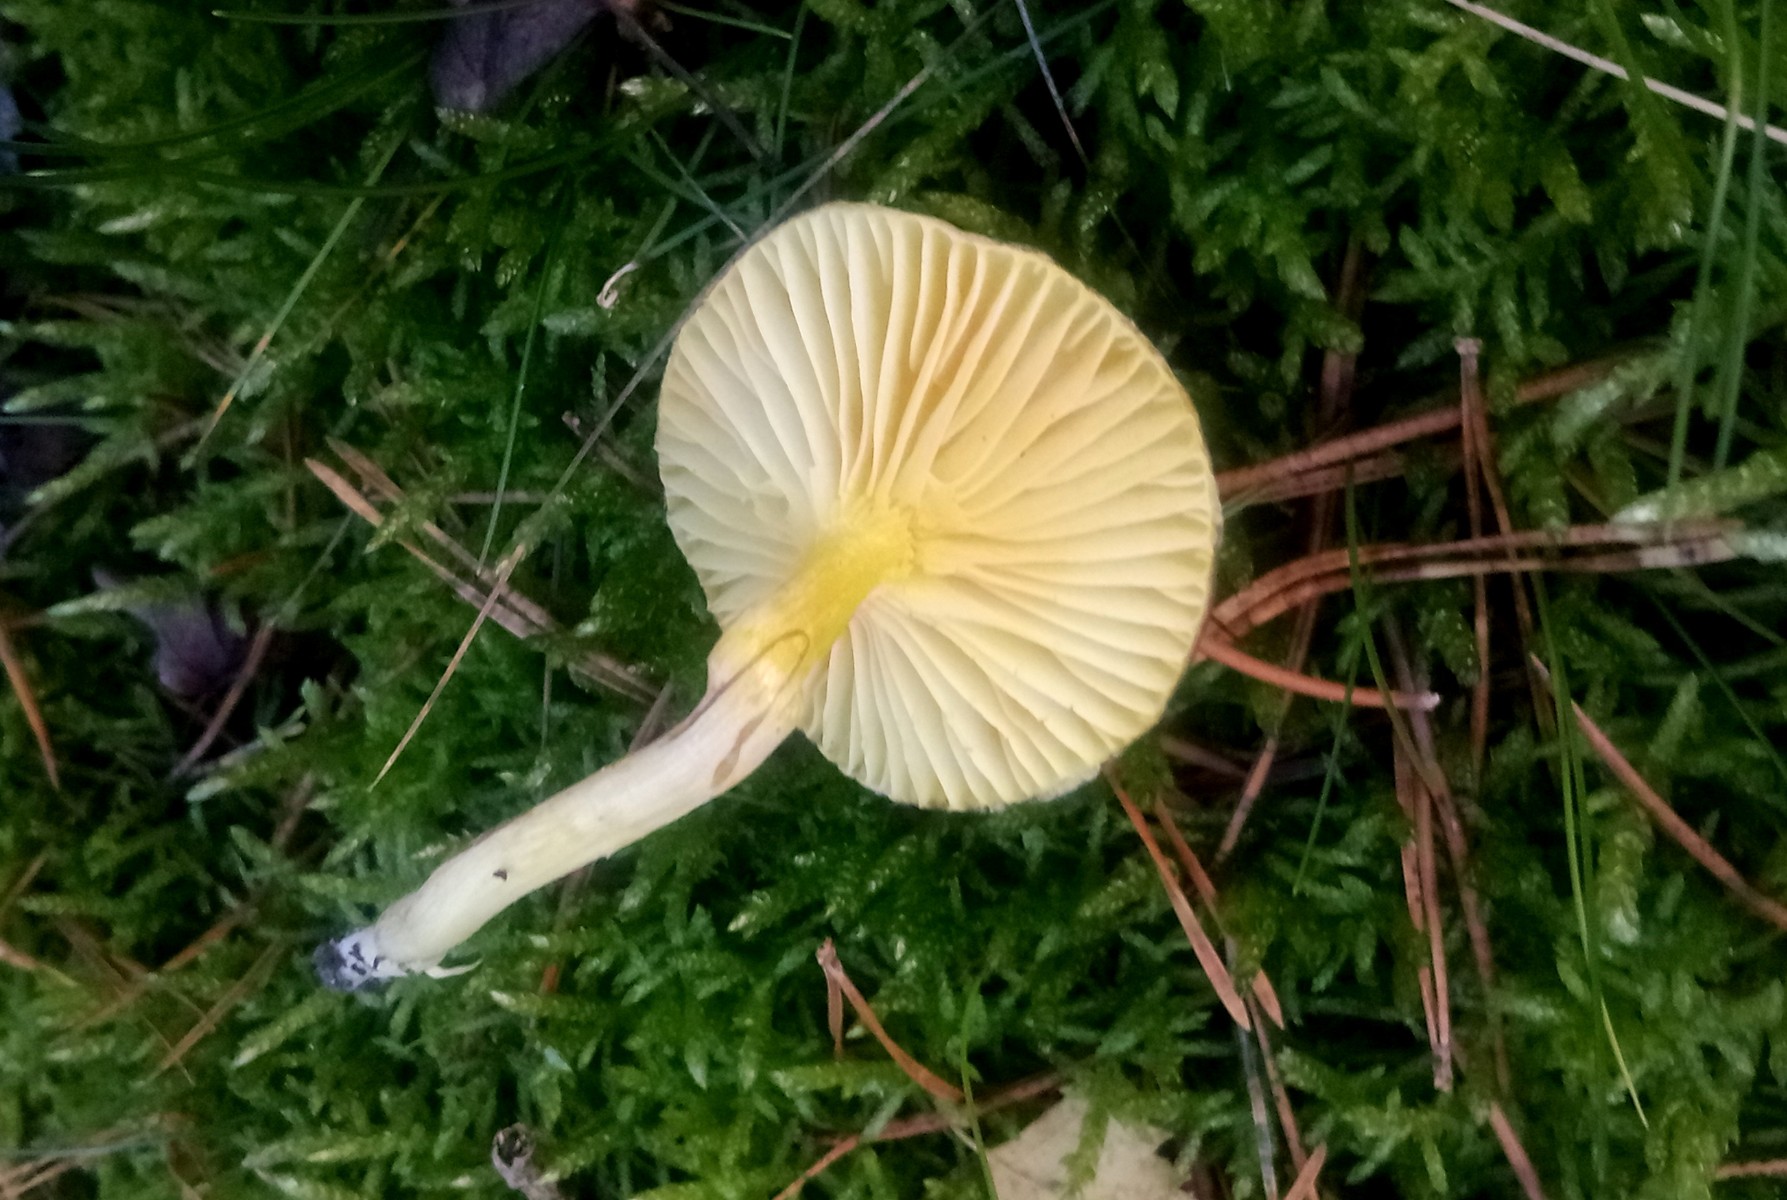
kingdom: Fungi
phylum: Basidiomycota
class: Agaricomycetes
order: Agaricales
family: Hygrophoraceae
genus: Hygrophorus
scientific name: Hygrophorus hypothejus
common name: frost-sneglehat
